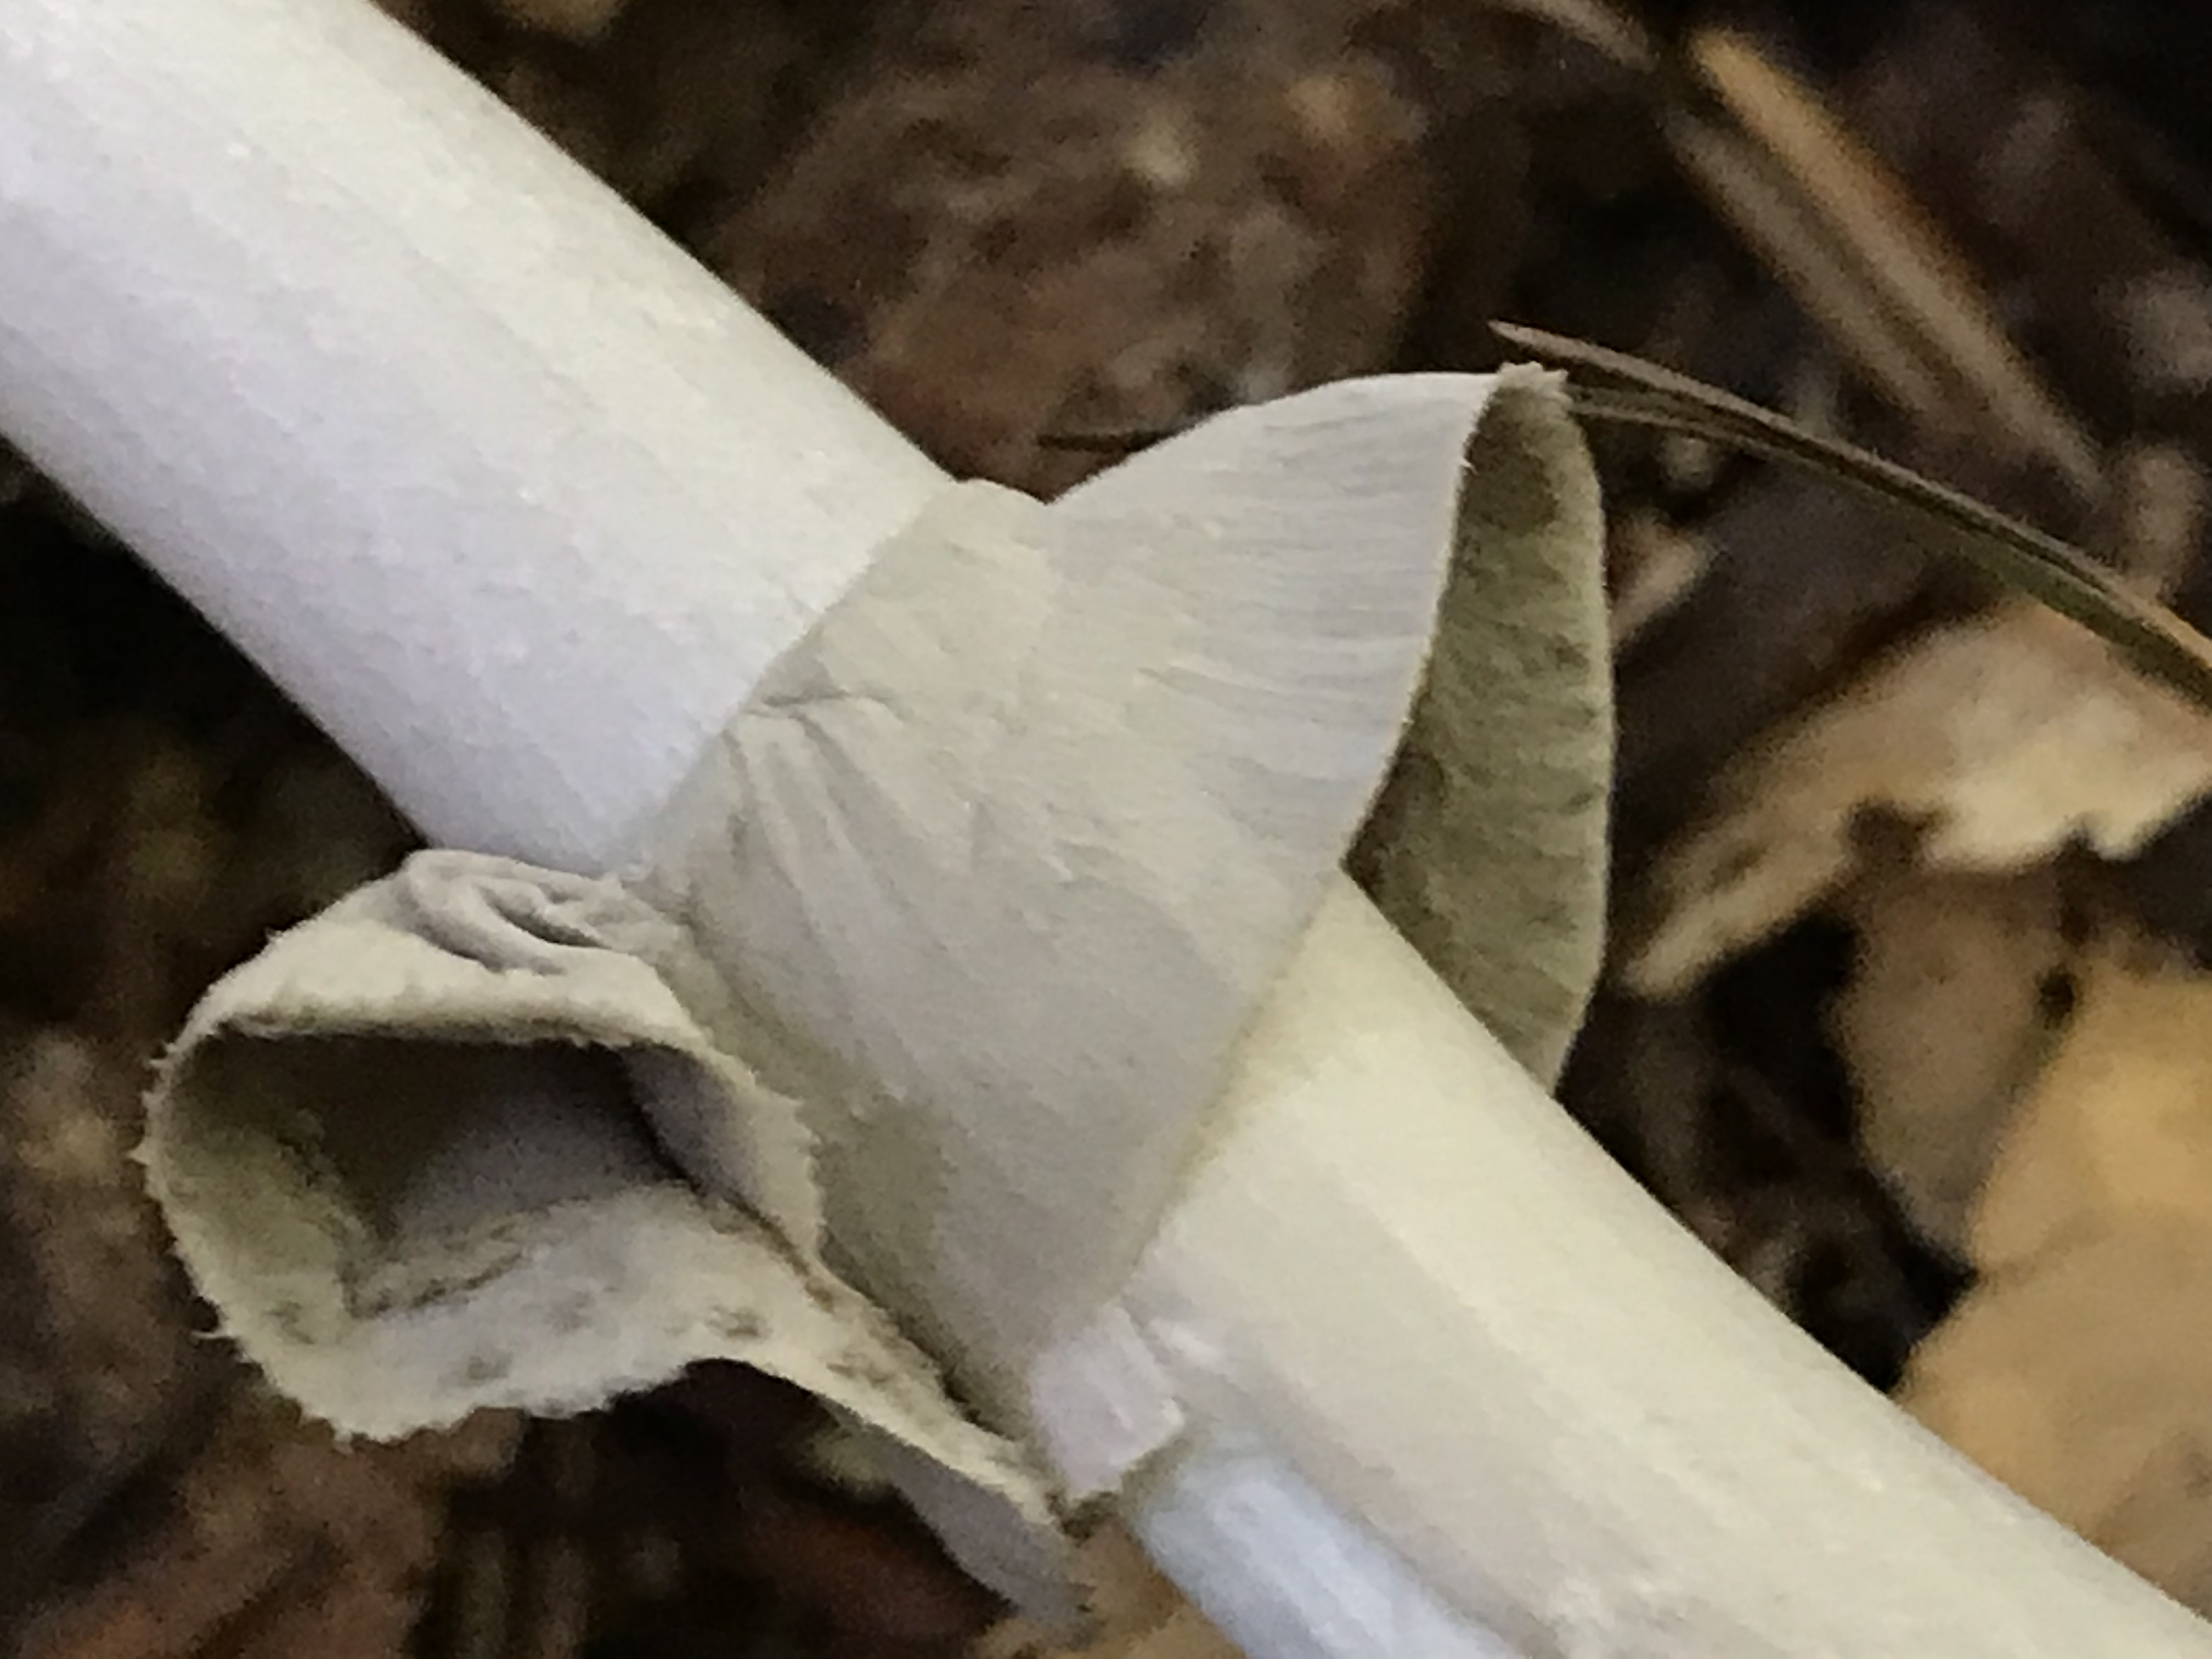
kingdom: Fungi
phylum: Basidiomycota
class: Agaricomycetes
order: Agaricales
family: Amanitaceae
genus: Amanita
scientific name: Amanita porphyria
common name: porfyr-fluesvamp
